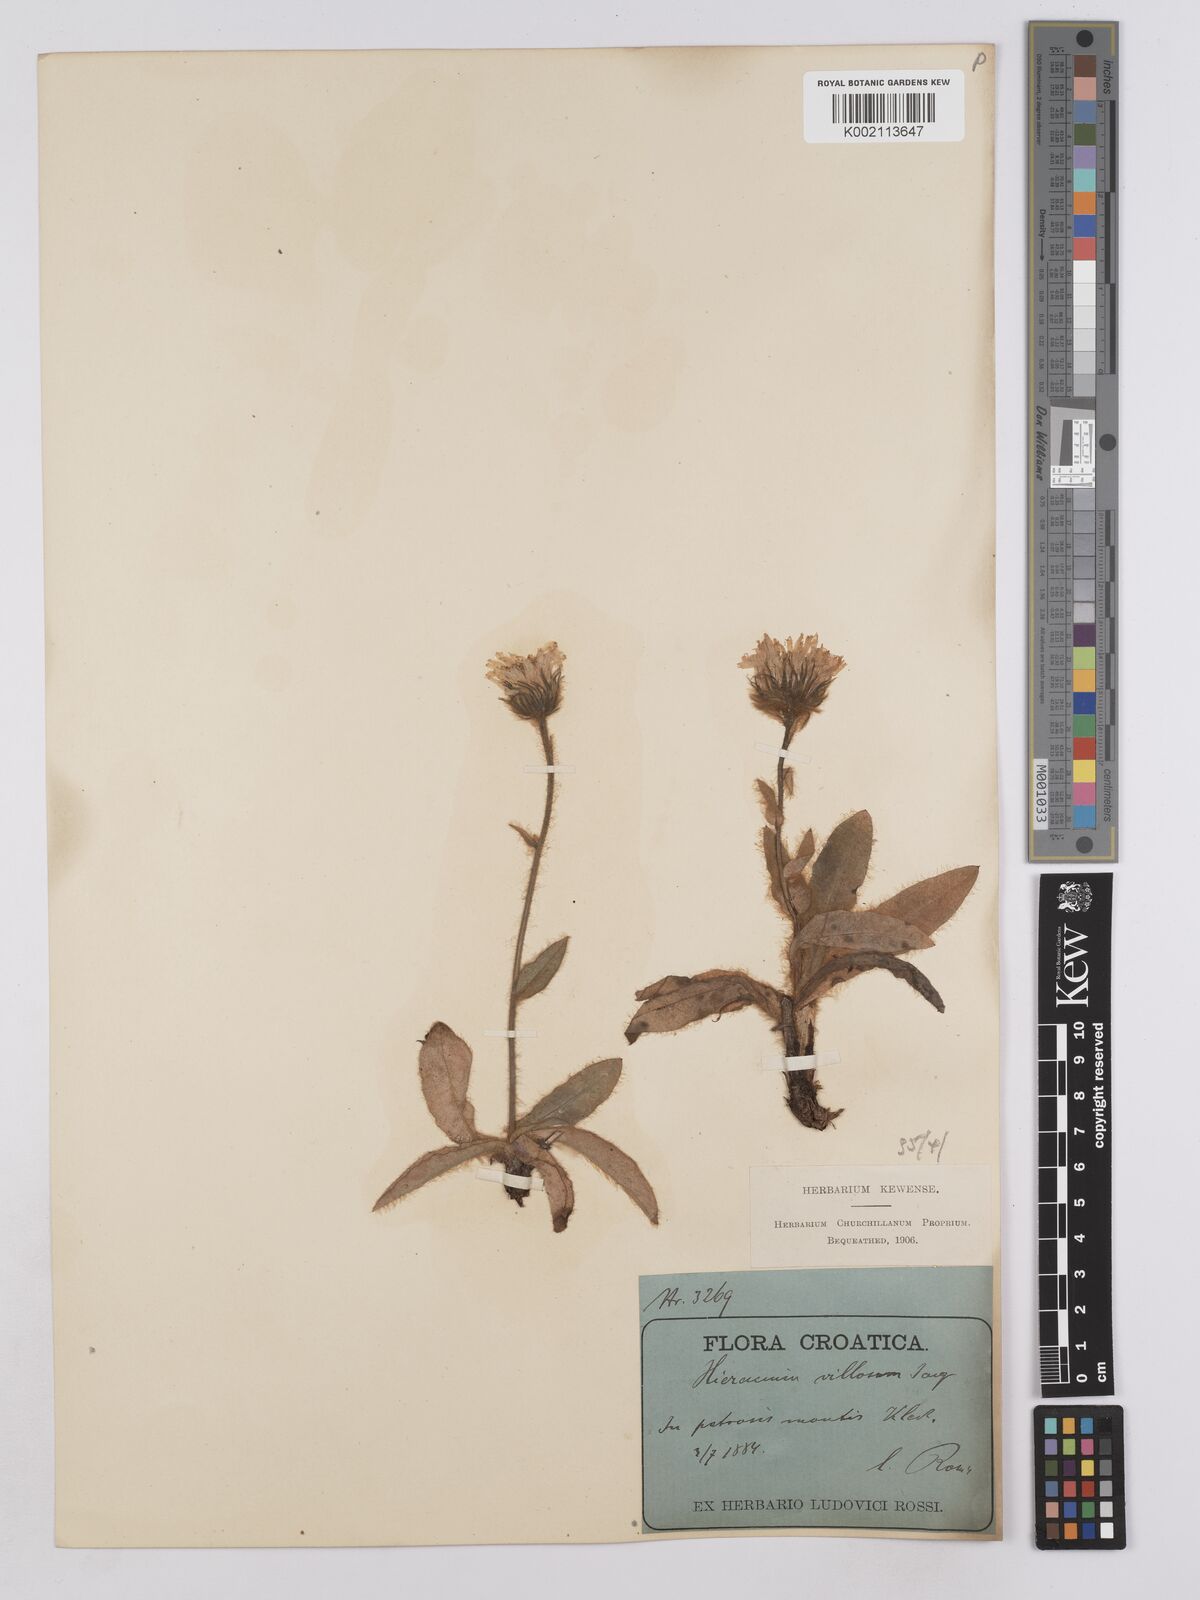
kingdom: Plantae
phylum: Tracheophyta
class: Magnoliopsida
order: Asterales
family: Asteraceae
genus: Hieracium
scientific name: Hieracium villosum
